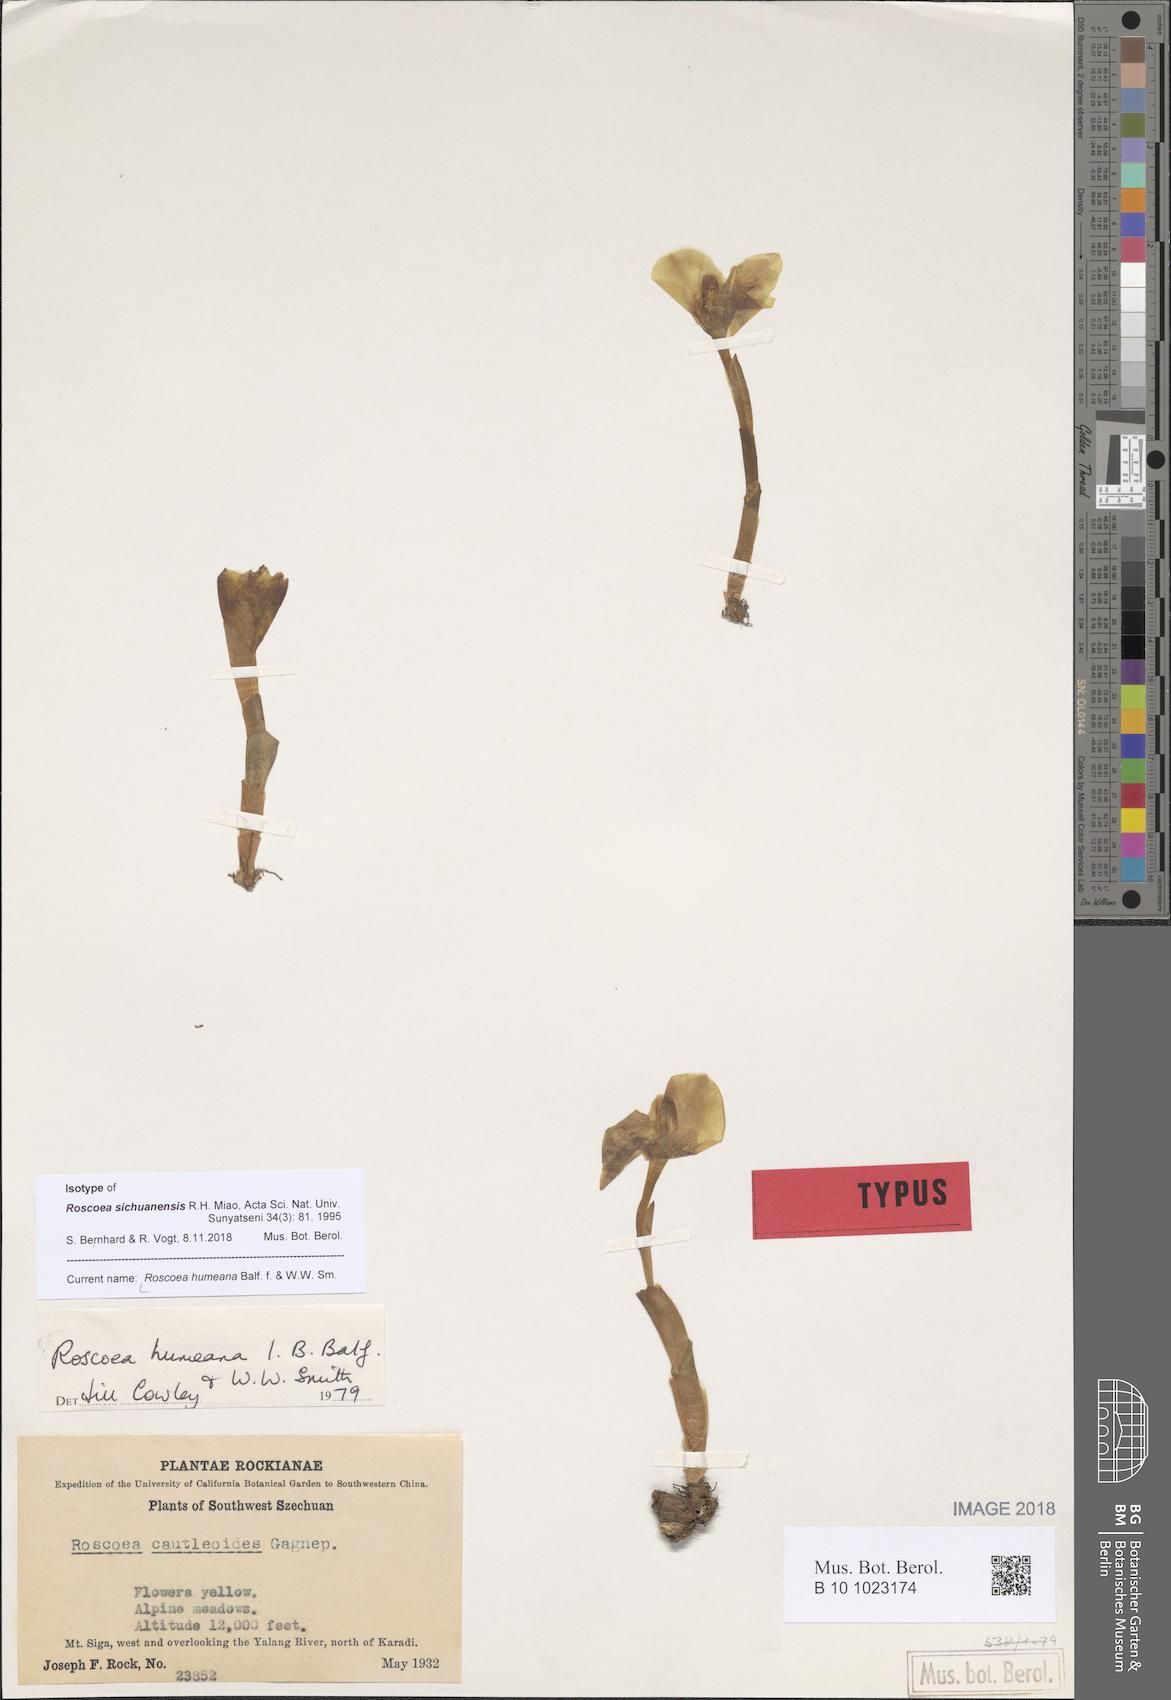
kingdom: Plantae
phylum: Tracheophyta
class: Liliopsida
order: Zingiberales
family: Zingiberaceae
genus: Roscoea
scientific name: Roscoea humeana
